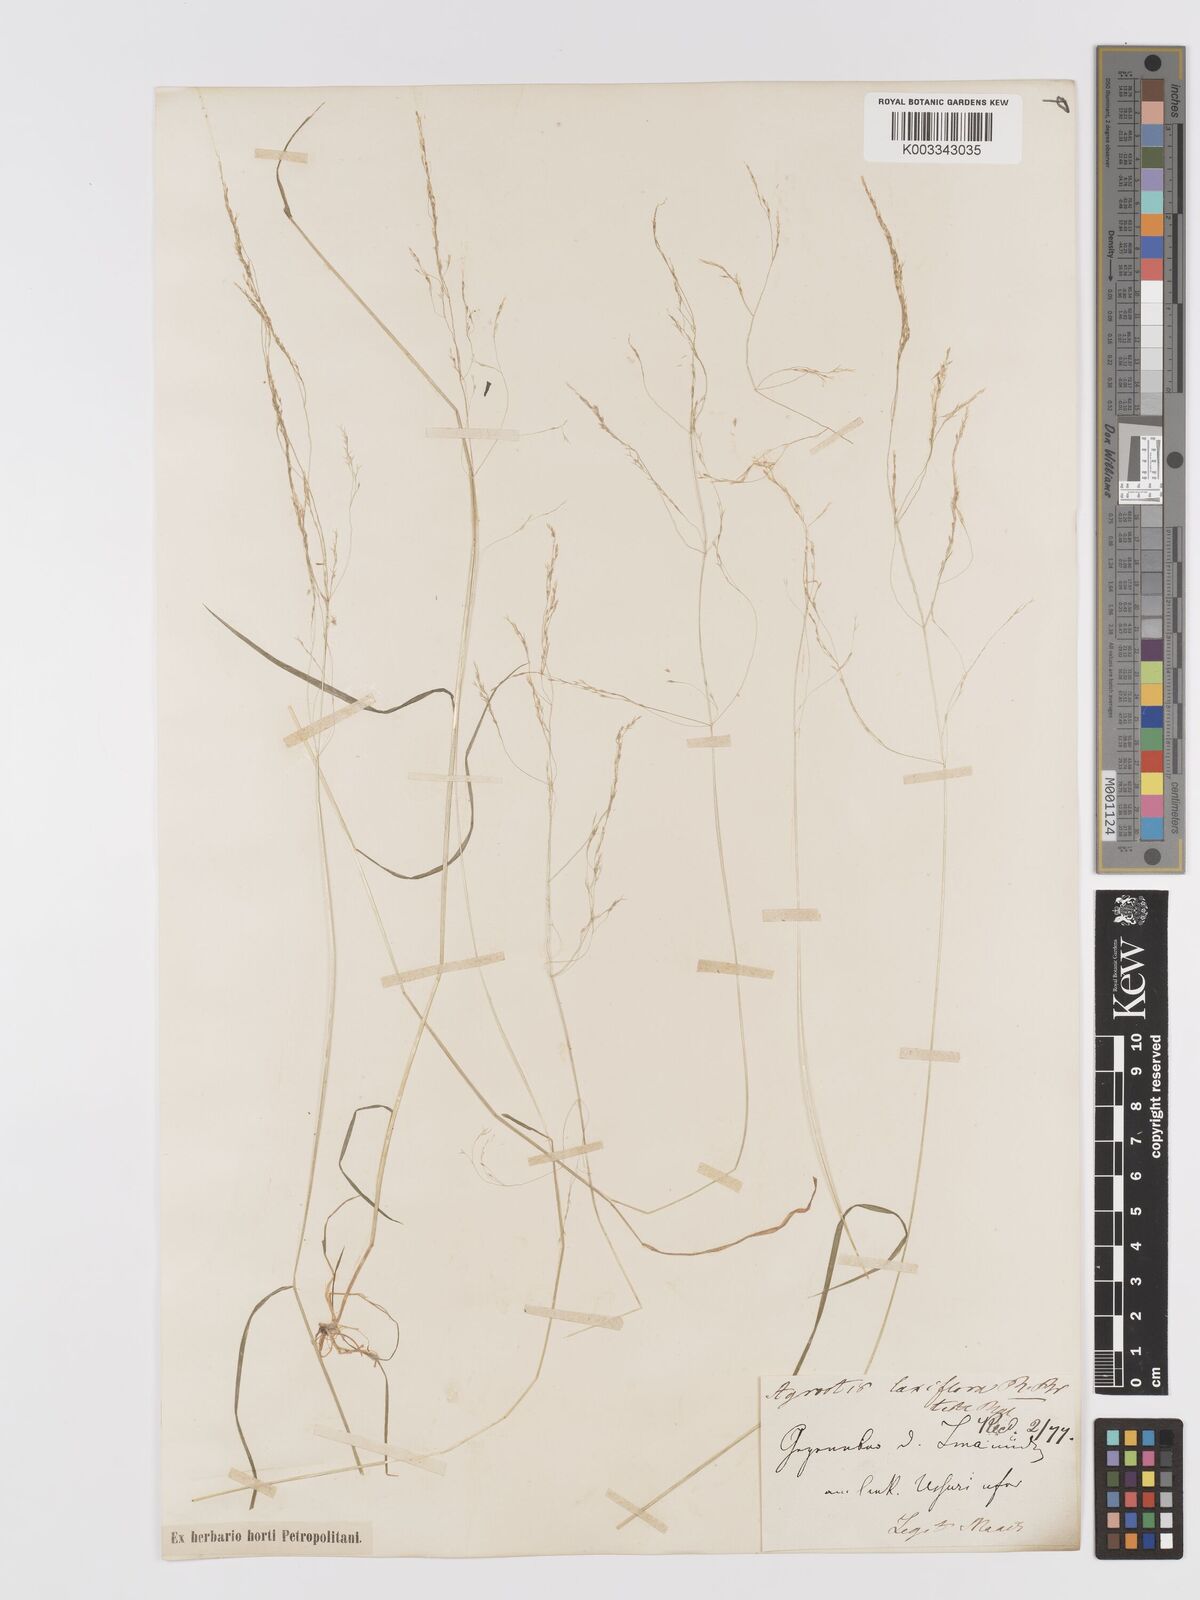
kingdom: Plantae
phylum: Tracheophyta
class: Liliopsida
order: Poales
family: Poaceae
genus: Agrostis
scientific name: Agrostis clavata
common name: Clavate bent
